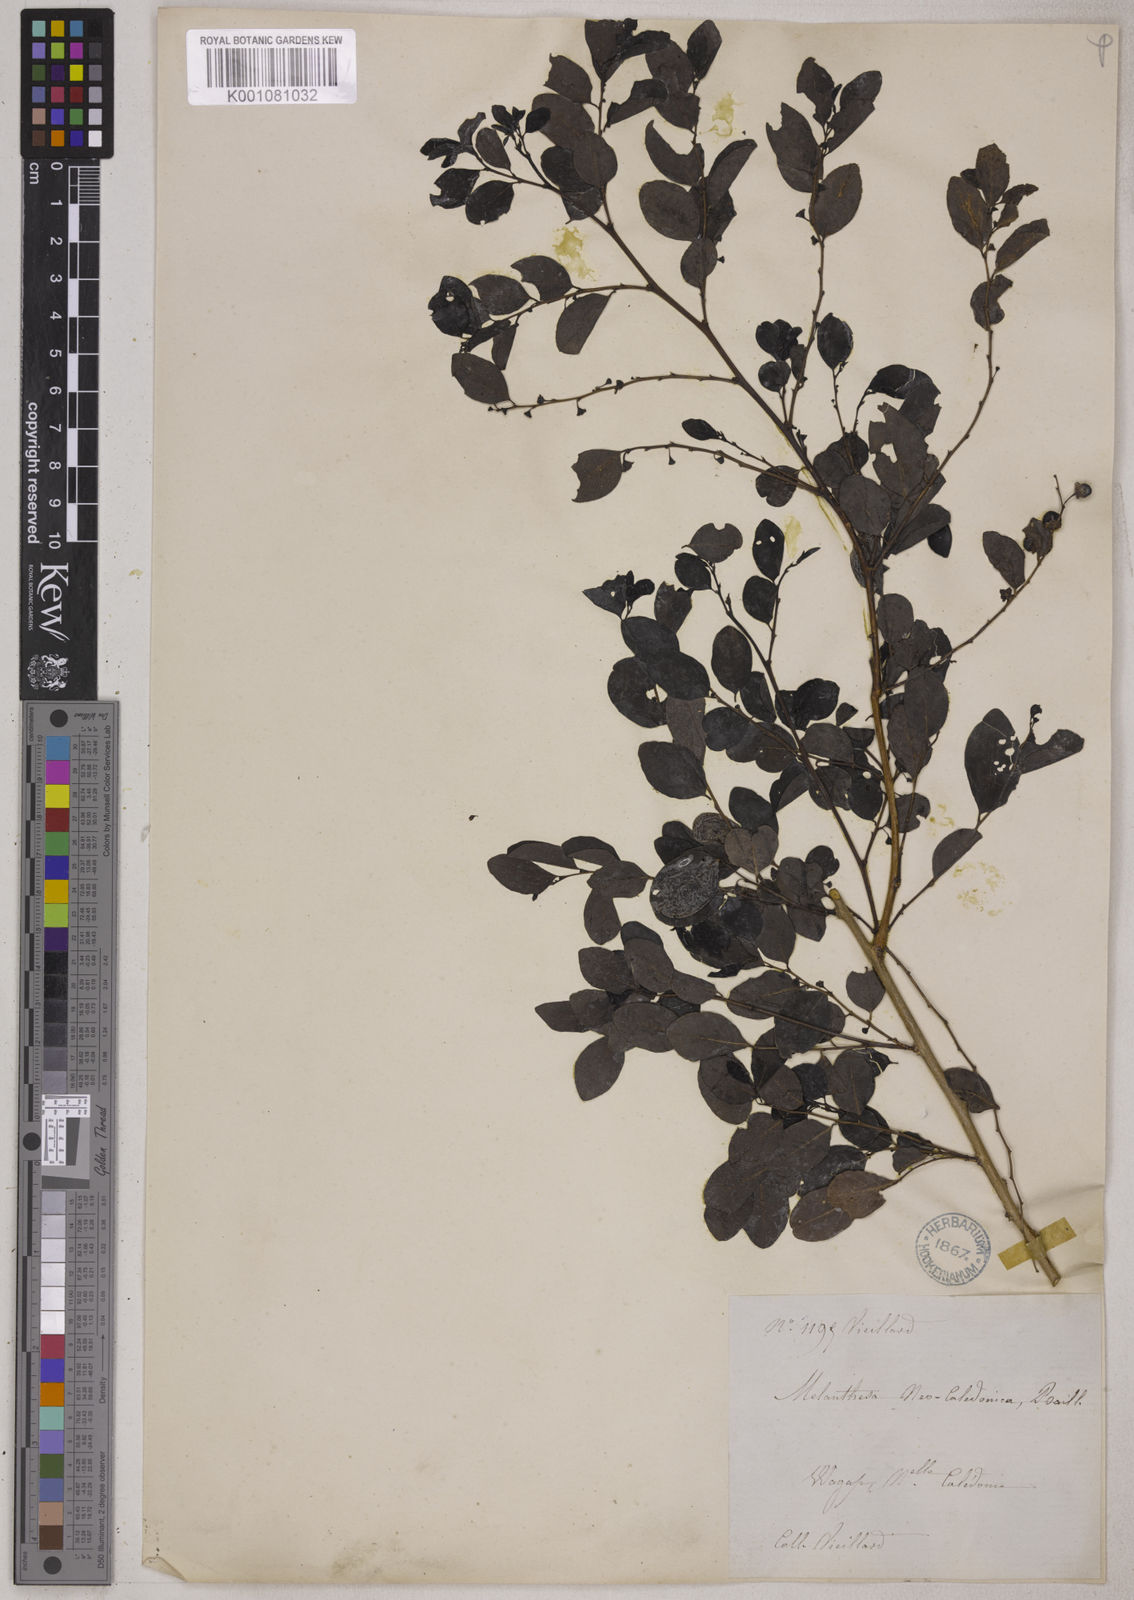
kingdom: Plantae
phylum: Tracheophyta
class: Magnoliopsida
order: Malpighiales
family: Phyllanthaceae
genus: Breynia
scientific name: Breynia disticha
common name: Snowbush
